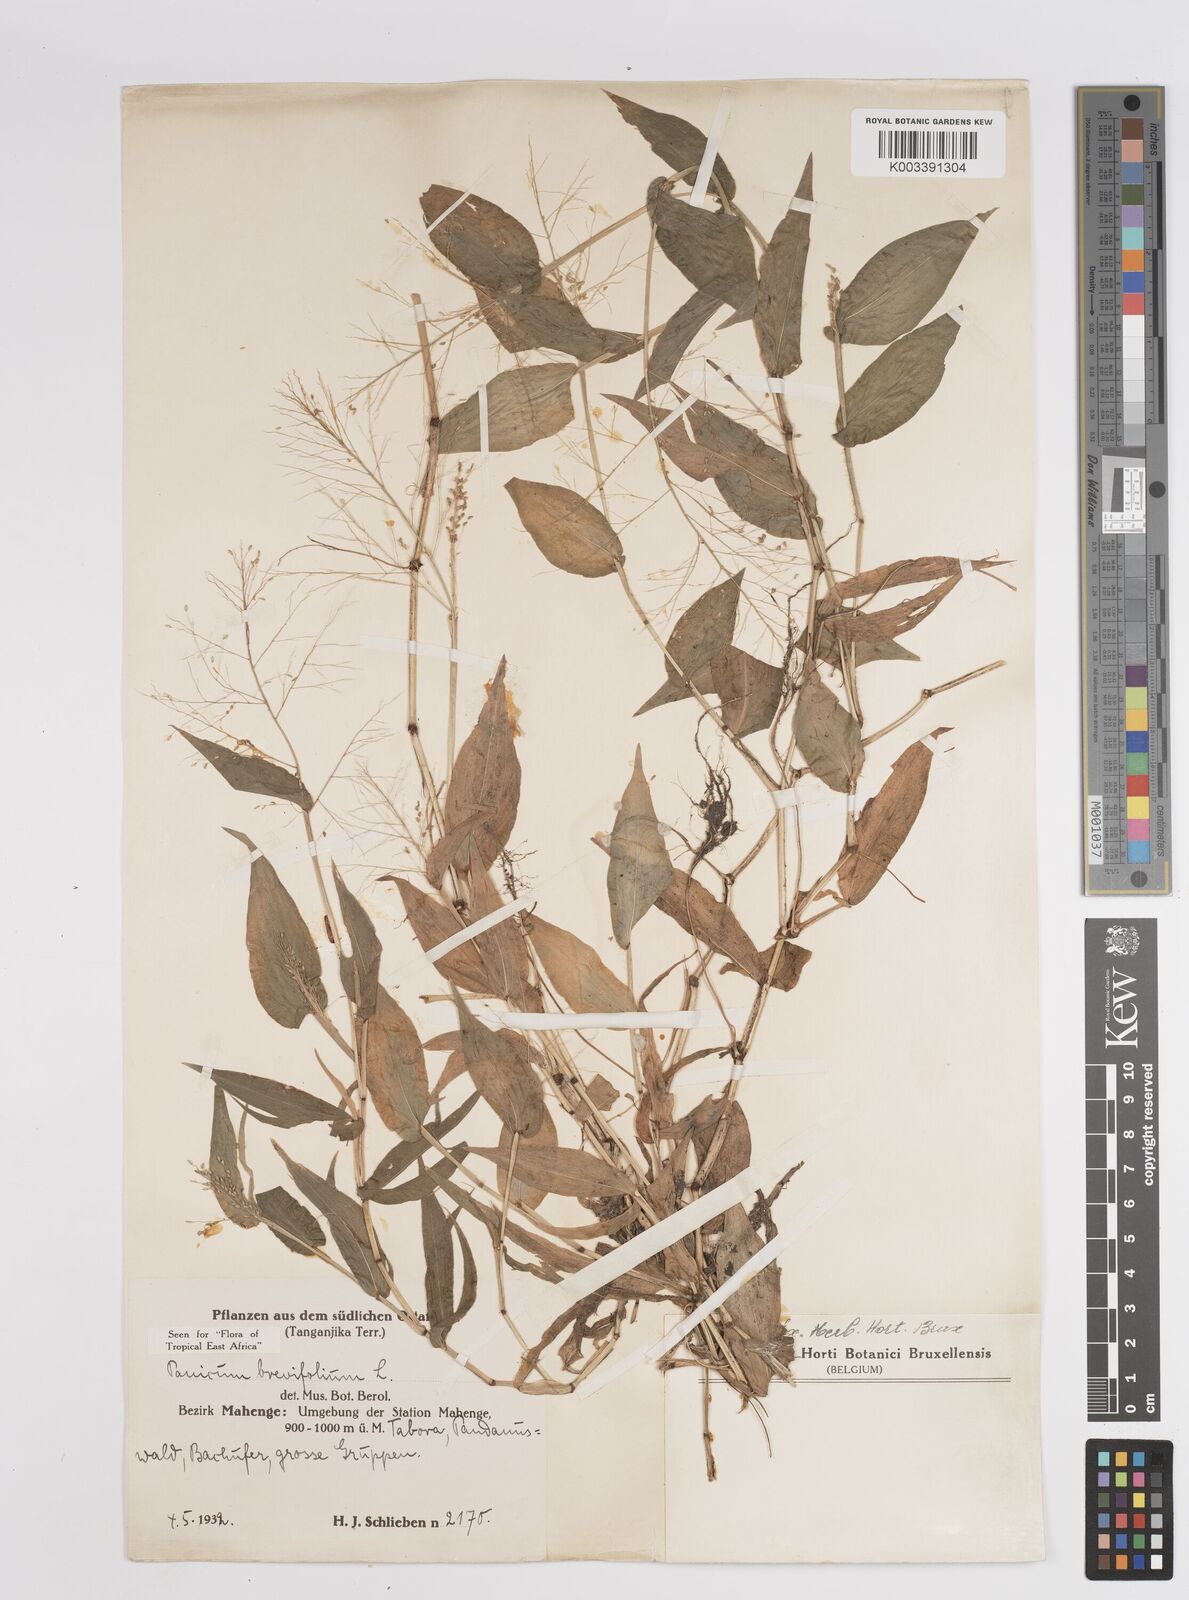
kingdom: Plantae
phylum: Tracheophyta
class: Liliopsida
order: Poales
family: Poaceae
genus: Panicum
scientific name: Panicum brevifolium
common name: Shortleaf panic grass
